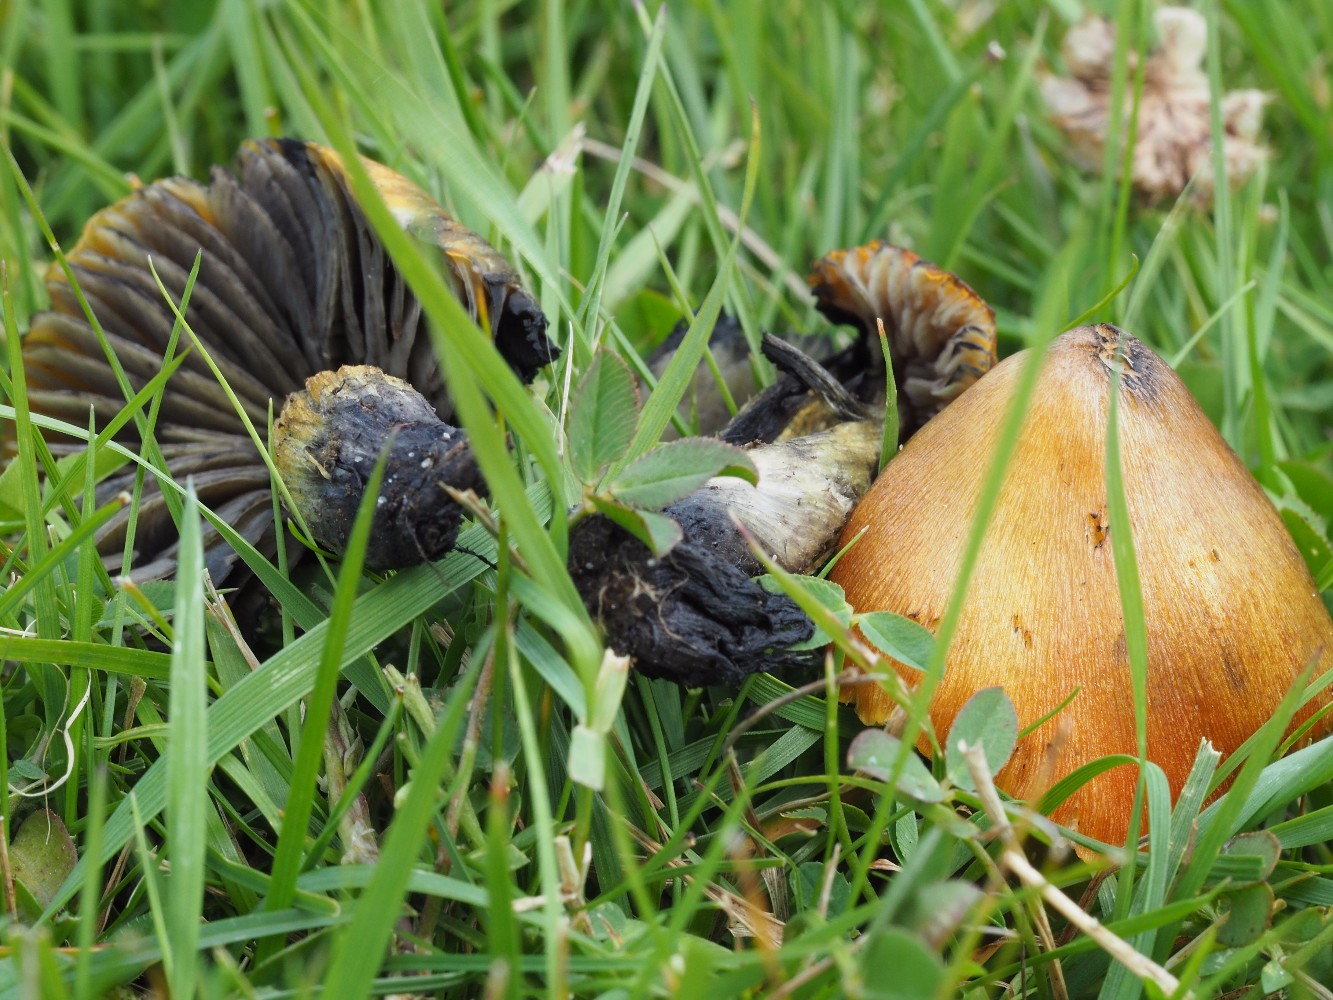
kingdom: Fungi
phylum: Basidiomycota
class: Agaricomycetes
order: Agaricales
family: Hygrophoraceae
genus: Hygrocybe
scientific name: Hygrocybe conica
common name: kegle-vokshat
